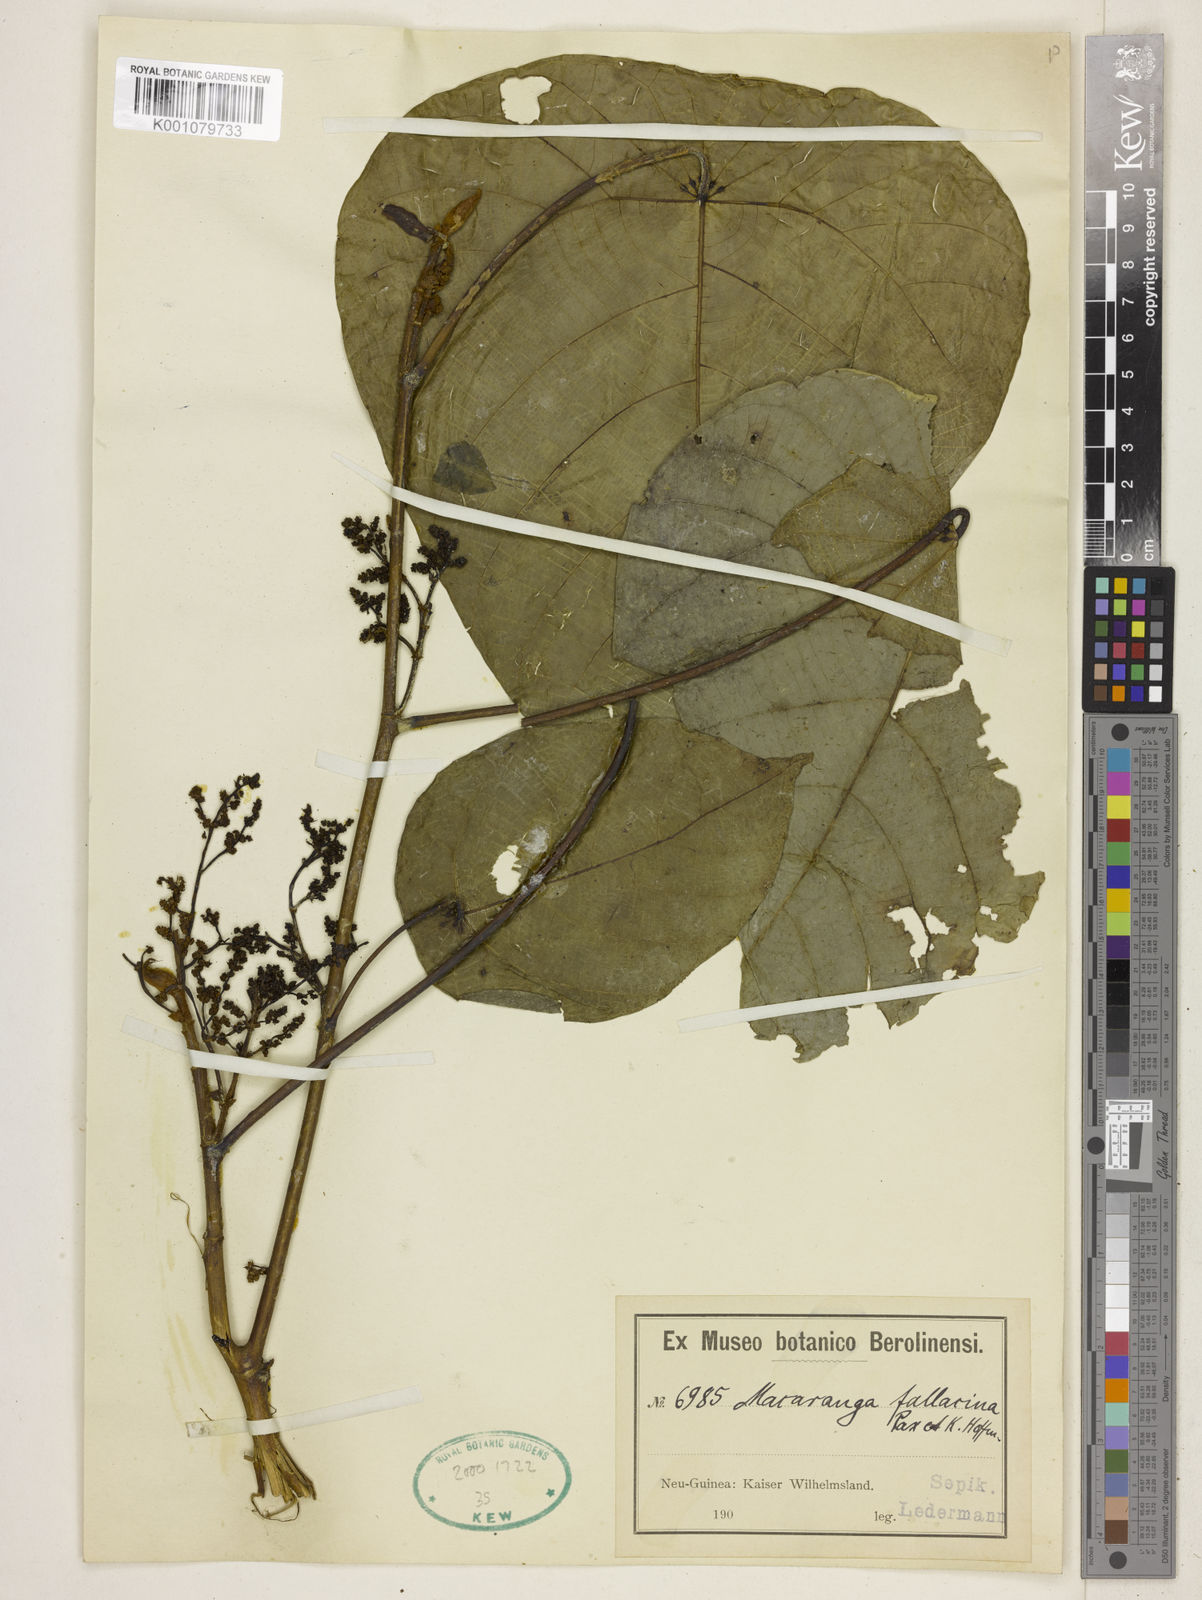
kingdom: Plantae
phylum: Tracheophyta
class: Magnoliopsida
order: Malpighiales
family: Euphorbiaceae
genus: Macaranga
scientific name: Macaranga fallacina
